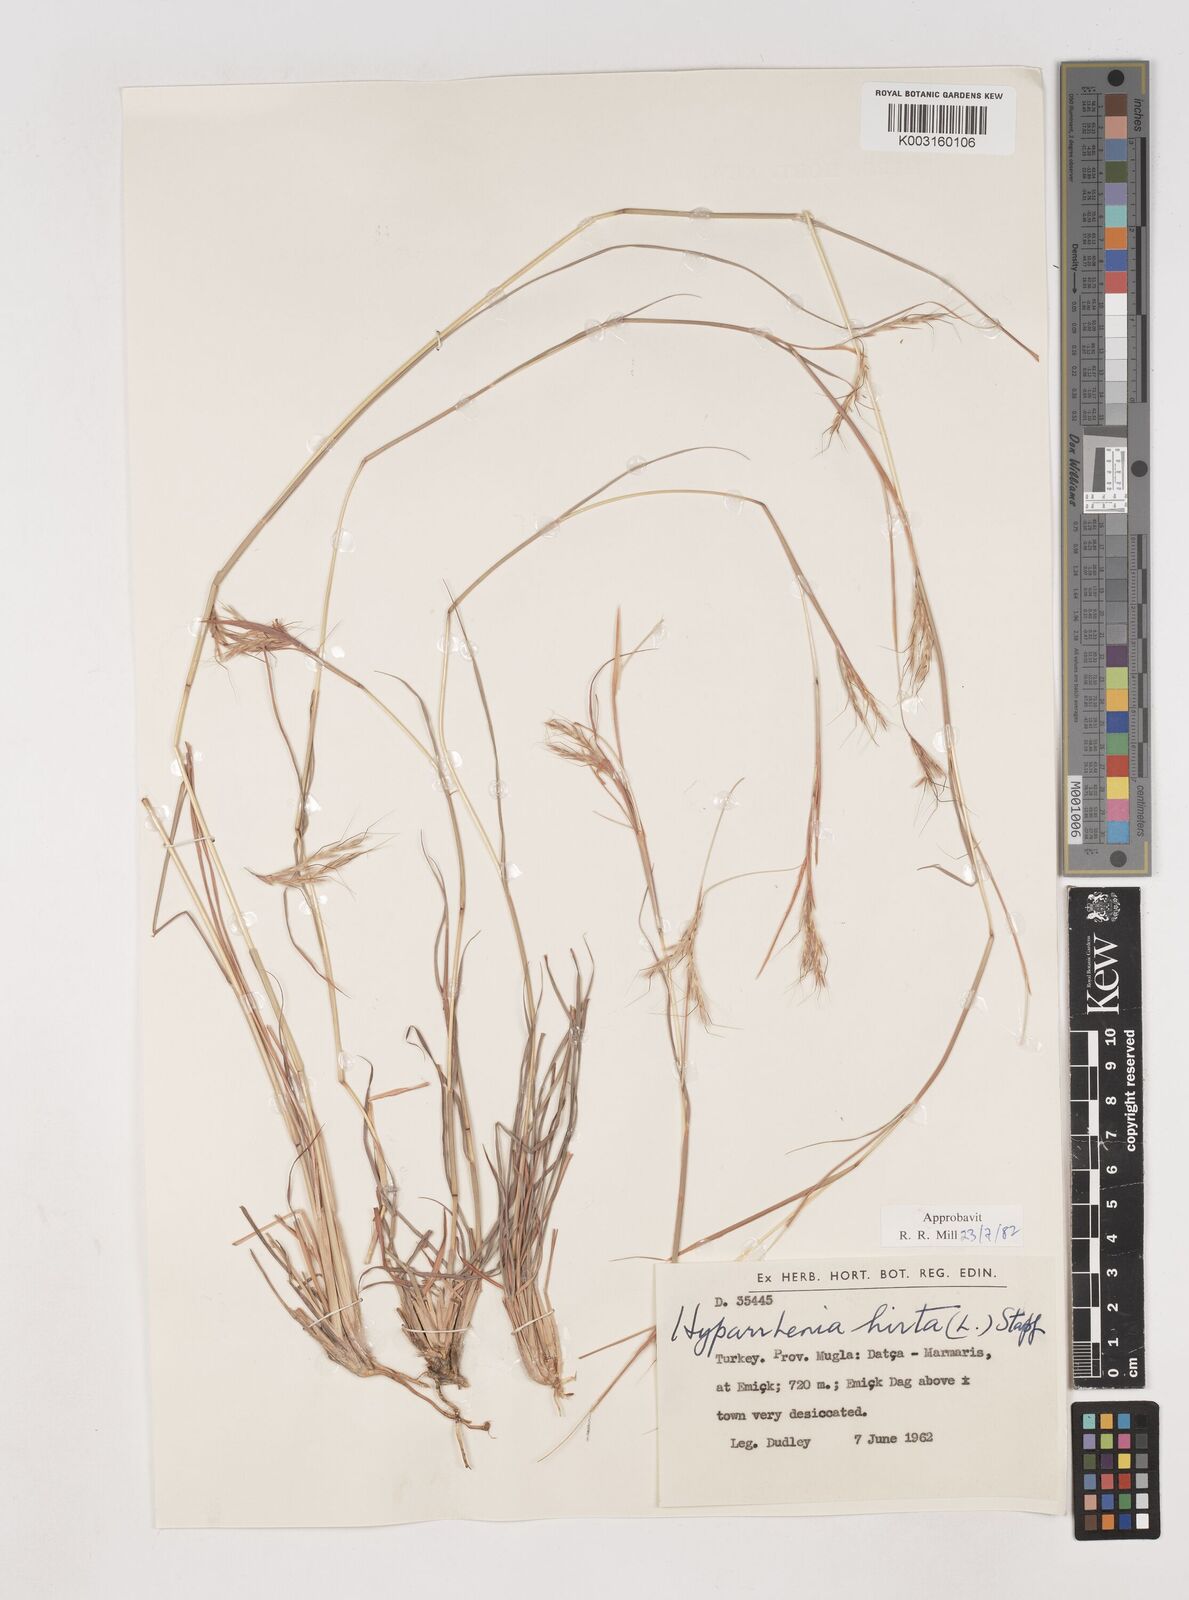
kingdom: Plantae
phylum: Tracheophyta
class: Liliopsida
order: Poales
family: Poaceae
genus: Hyparrhenia
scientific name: Hyparrhenia hirta
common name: Thatching grass
